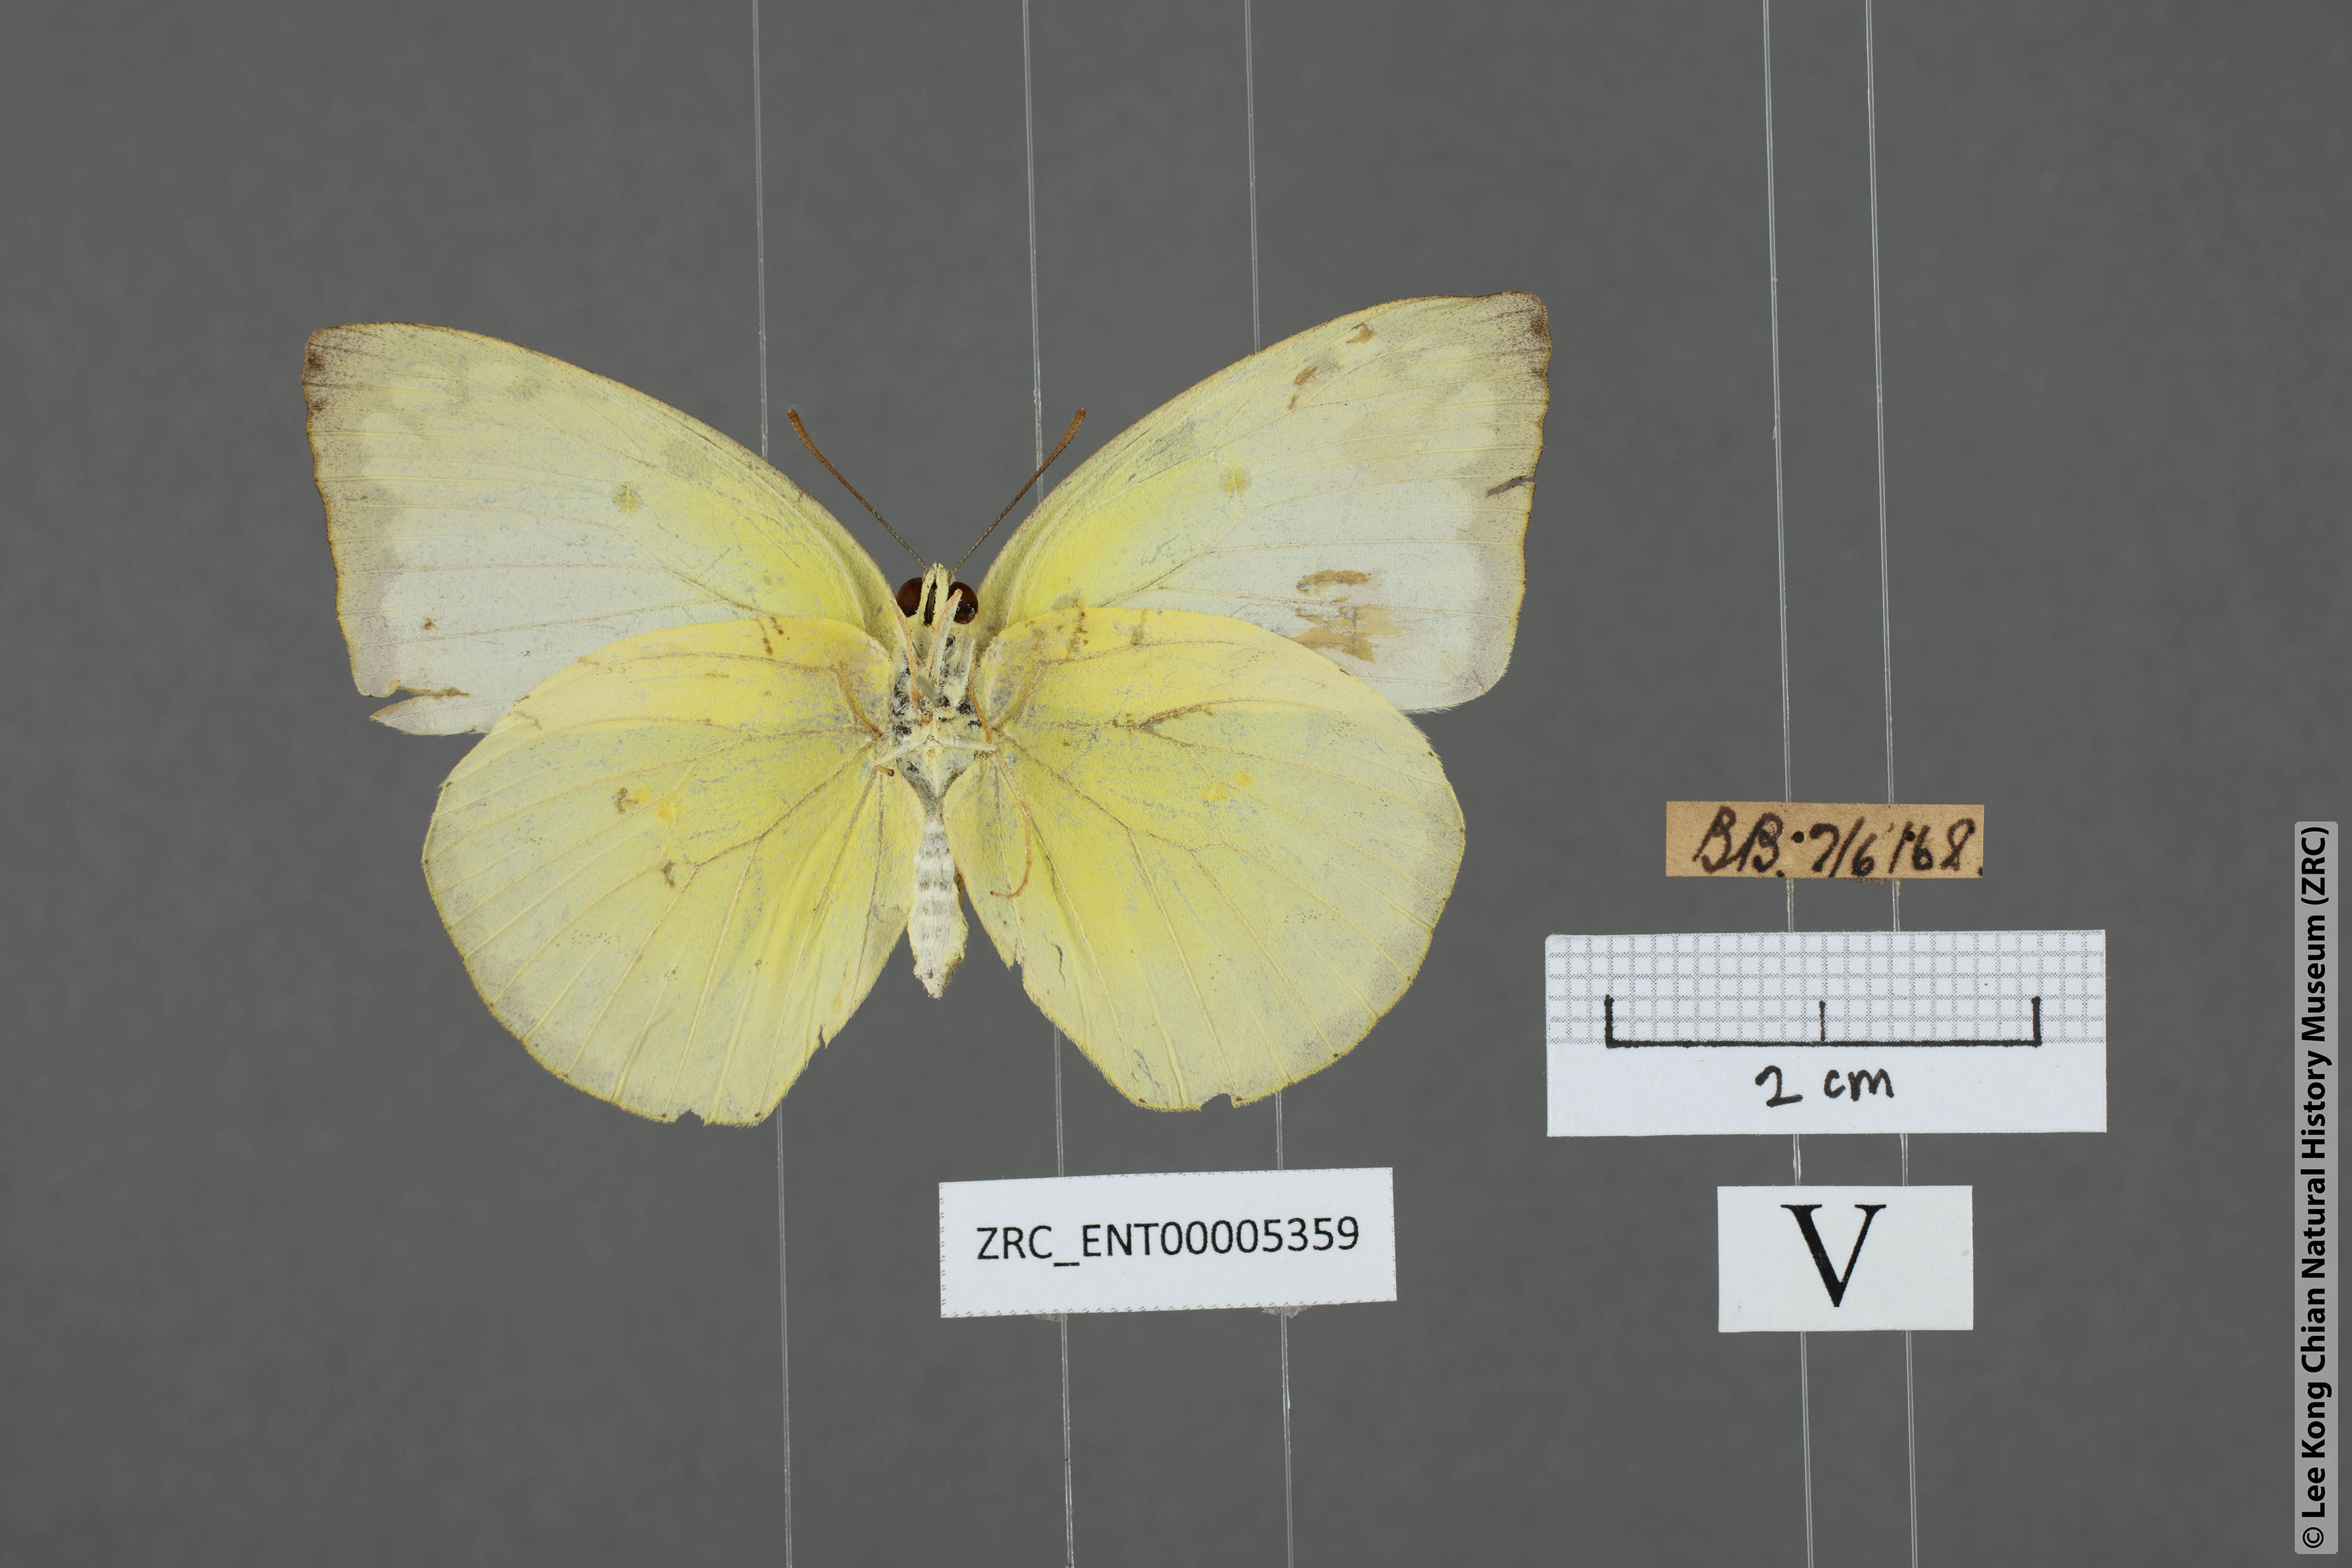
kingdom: Animalia
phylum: Arthropoda
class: Insecta
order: Lepidoptera
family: Pieridae
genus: Catopsilia
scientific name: Catopsilia pomona
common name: Common emigrant
